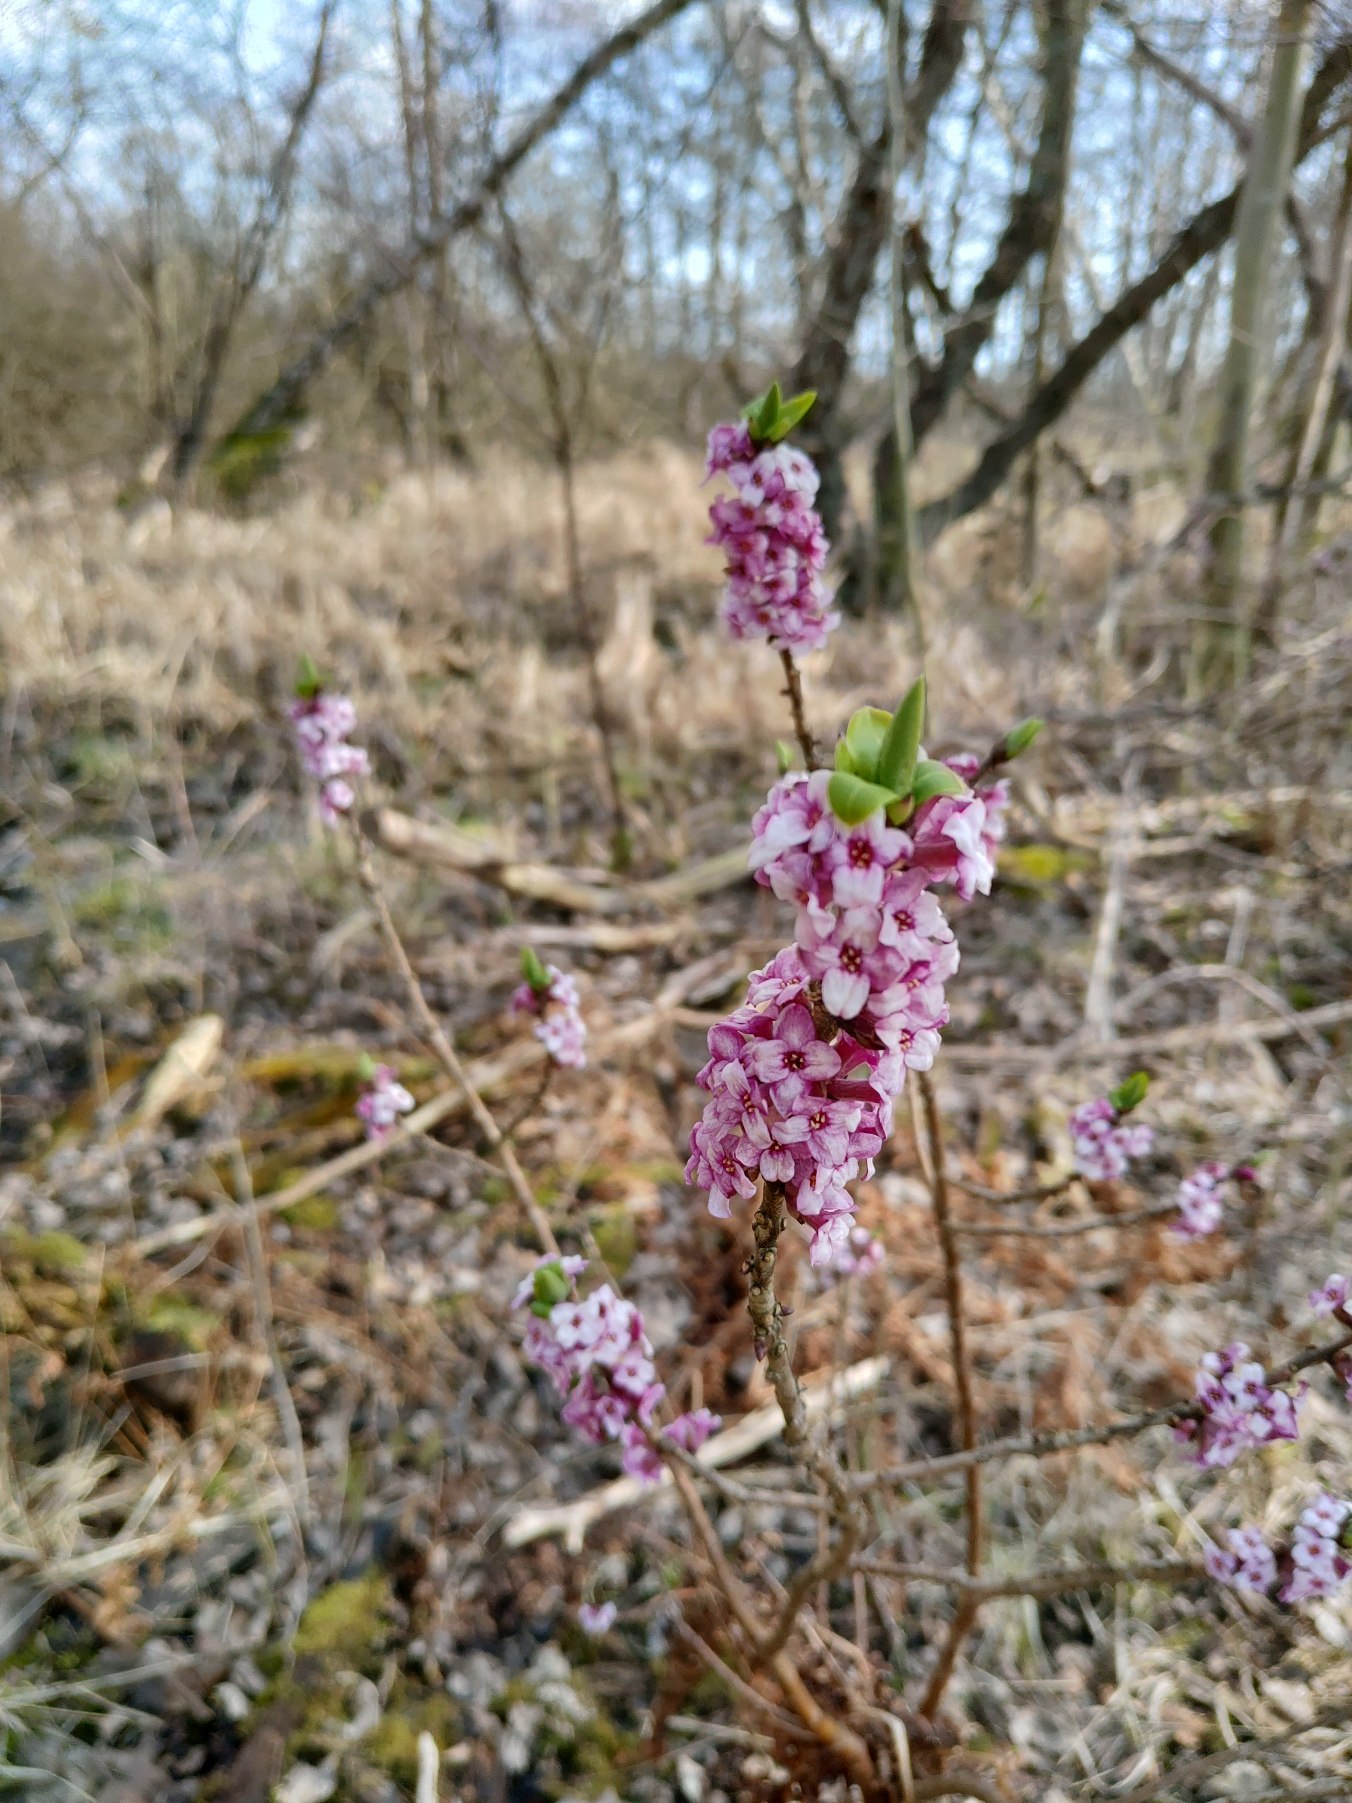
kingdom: Plantae
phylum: Tracheophyta
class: Magnoliopsida
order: Malvales
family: Thymelaeaceae
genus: Daphne
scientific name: Daphne mezereum
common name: Pebertræ
